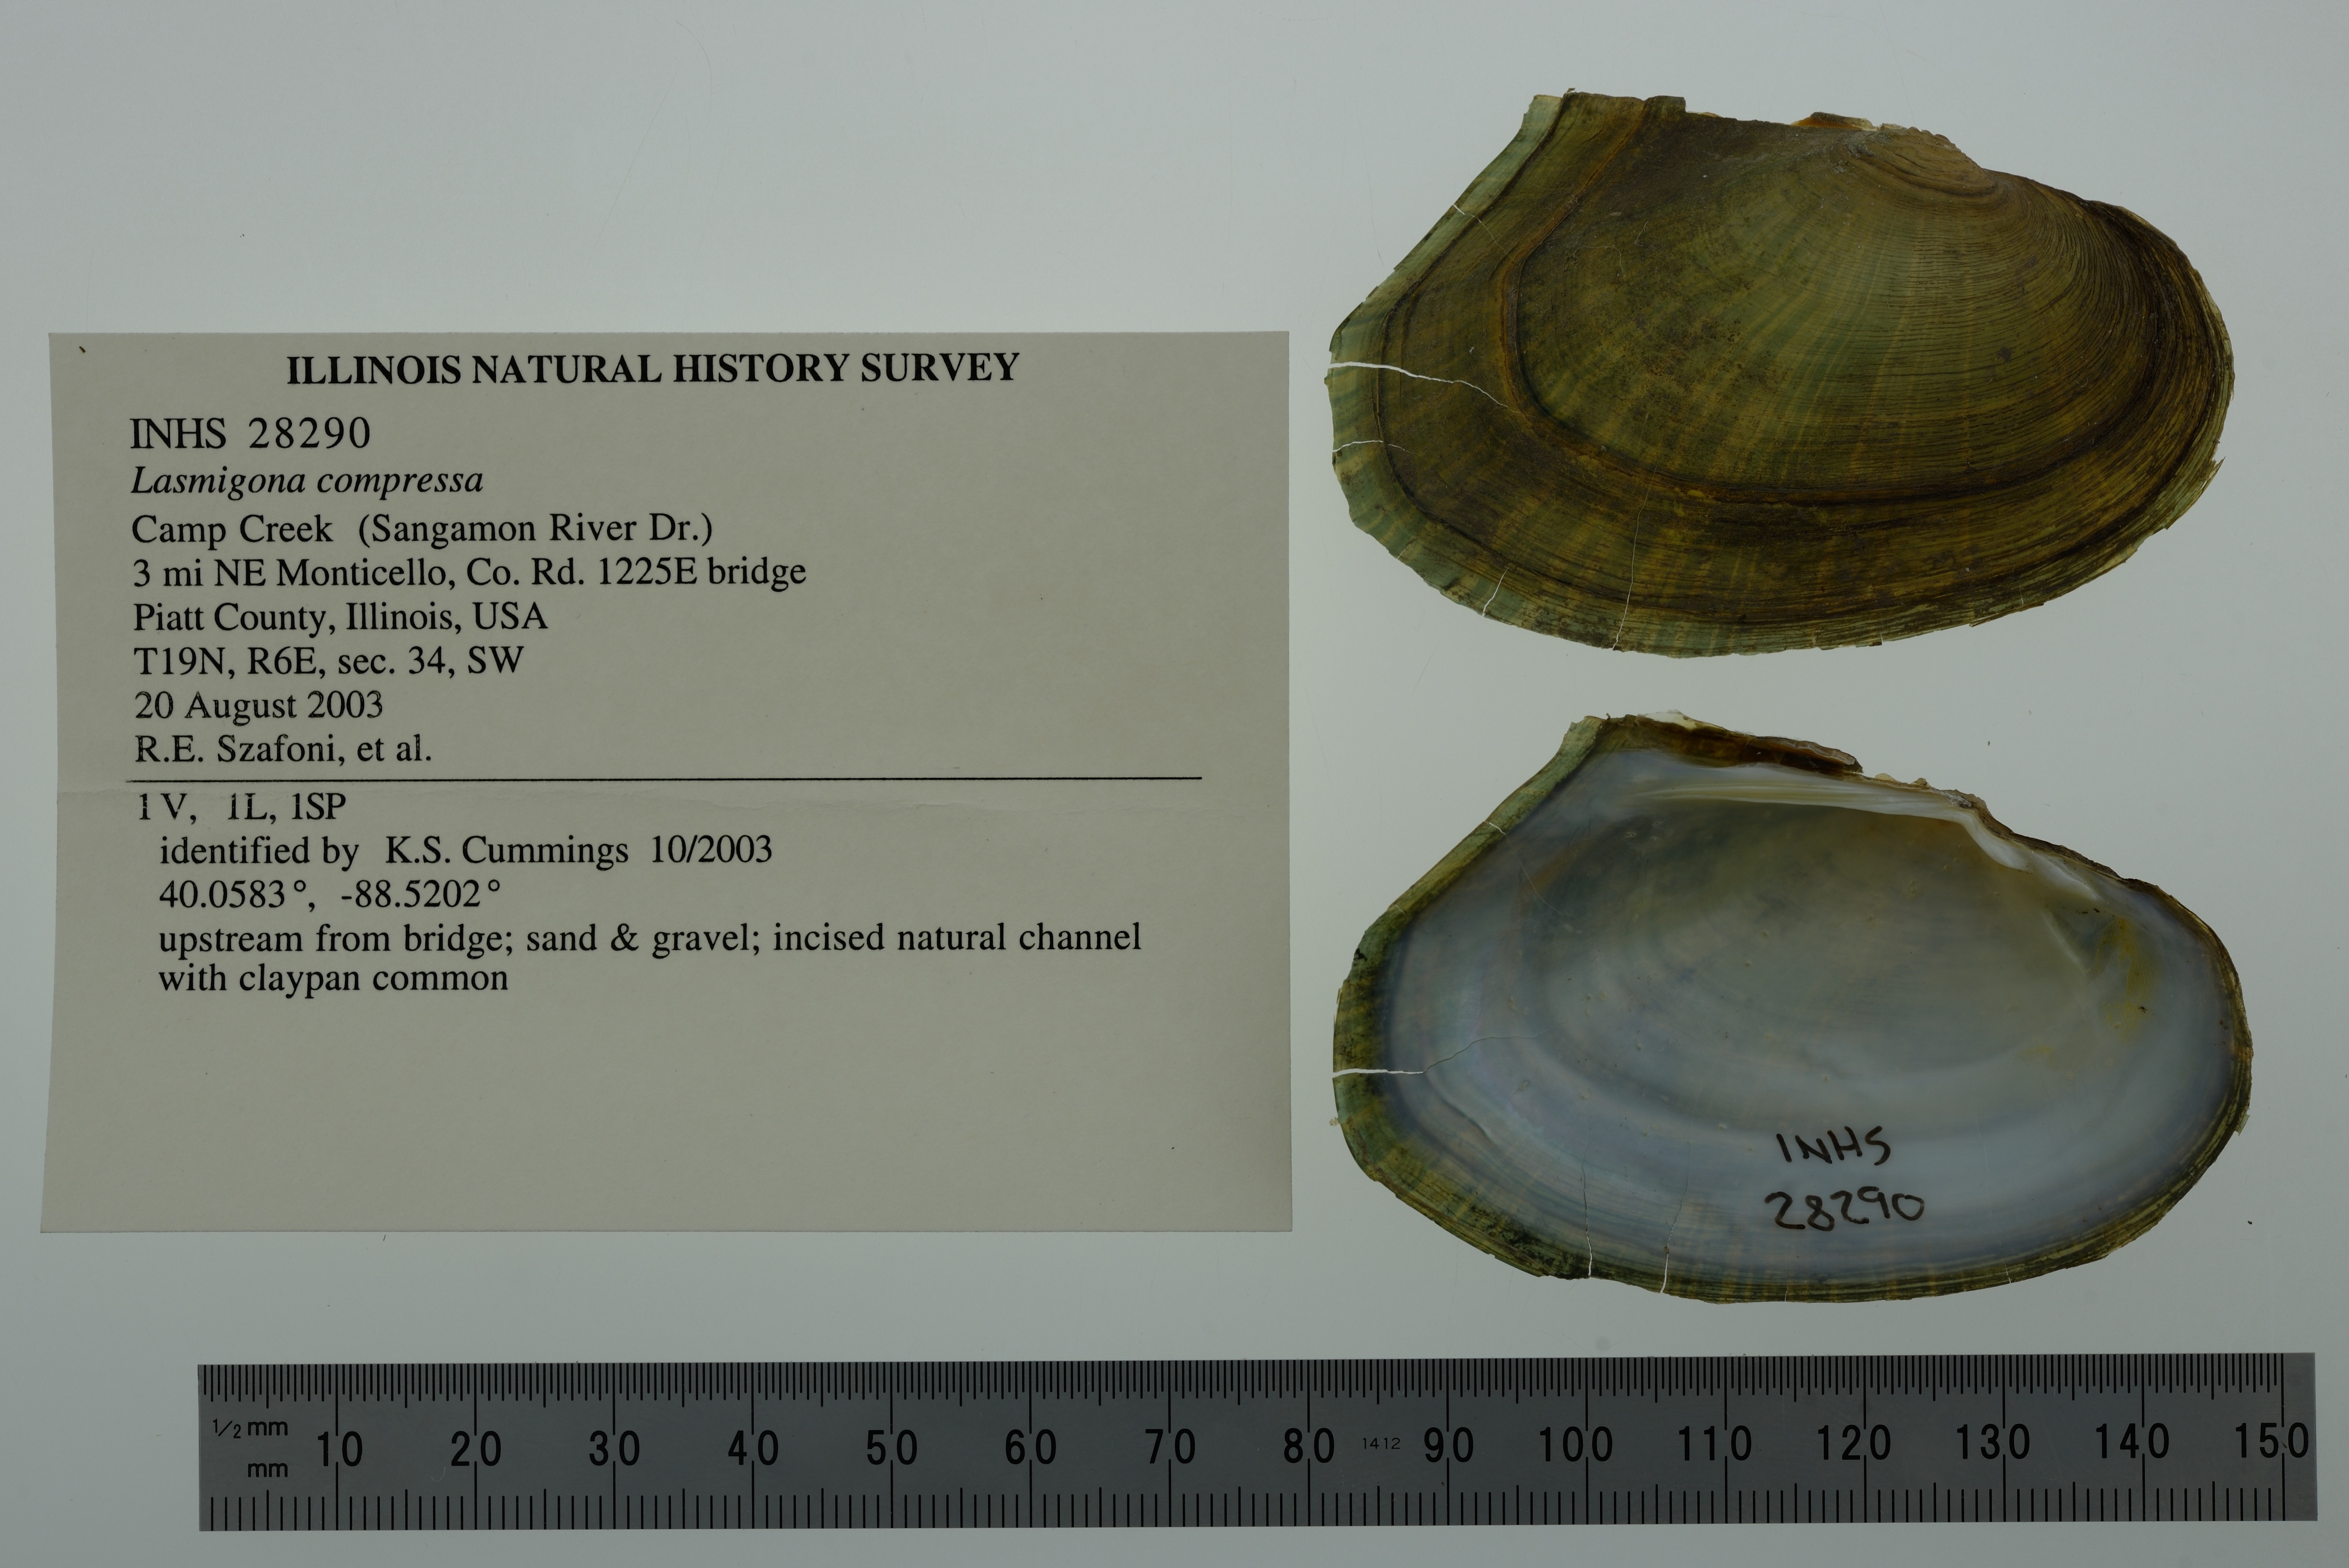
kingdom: Animalia
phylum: Mollusca
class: Bivalvia
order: Unionida
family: Unionidae
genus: Lasmigona
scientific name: Lasmigona compressa
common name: Creek heelsplitter
